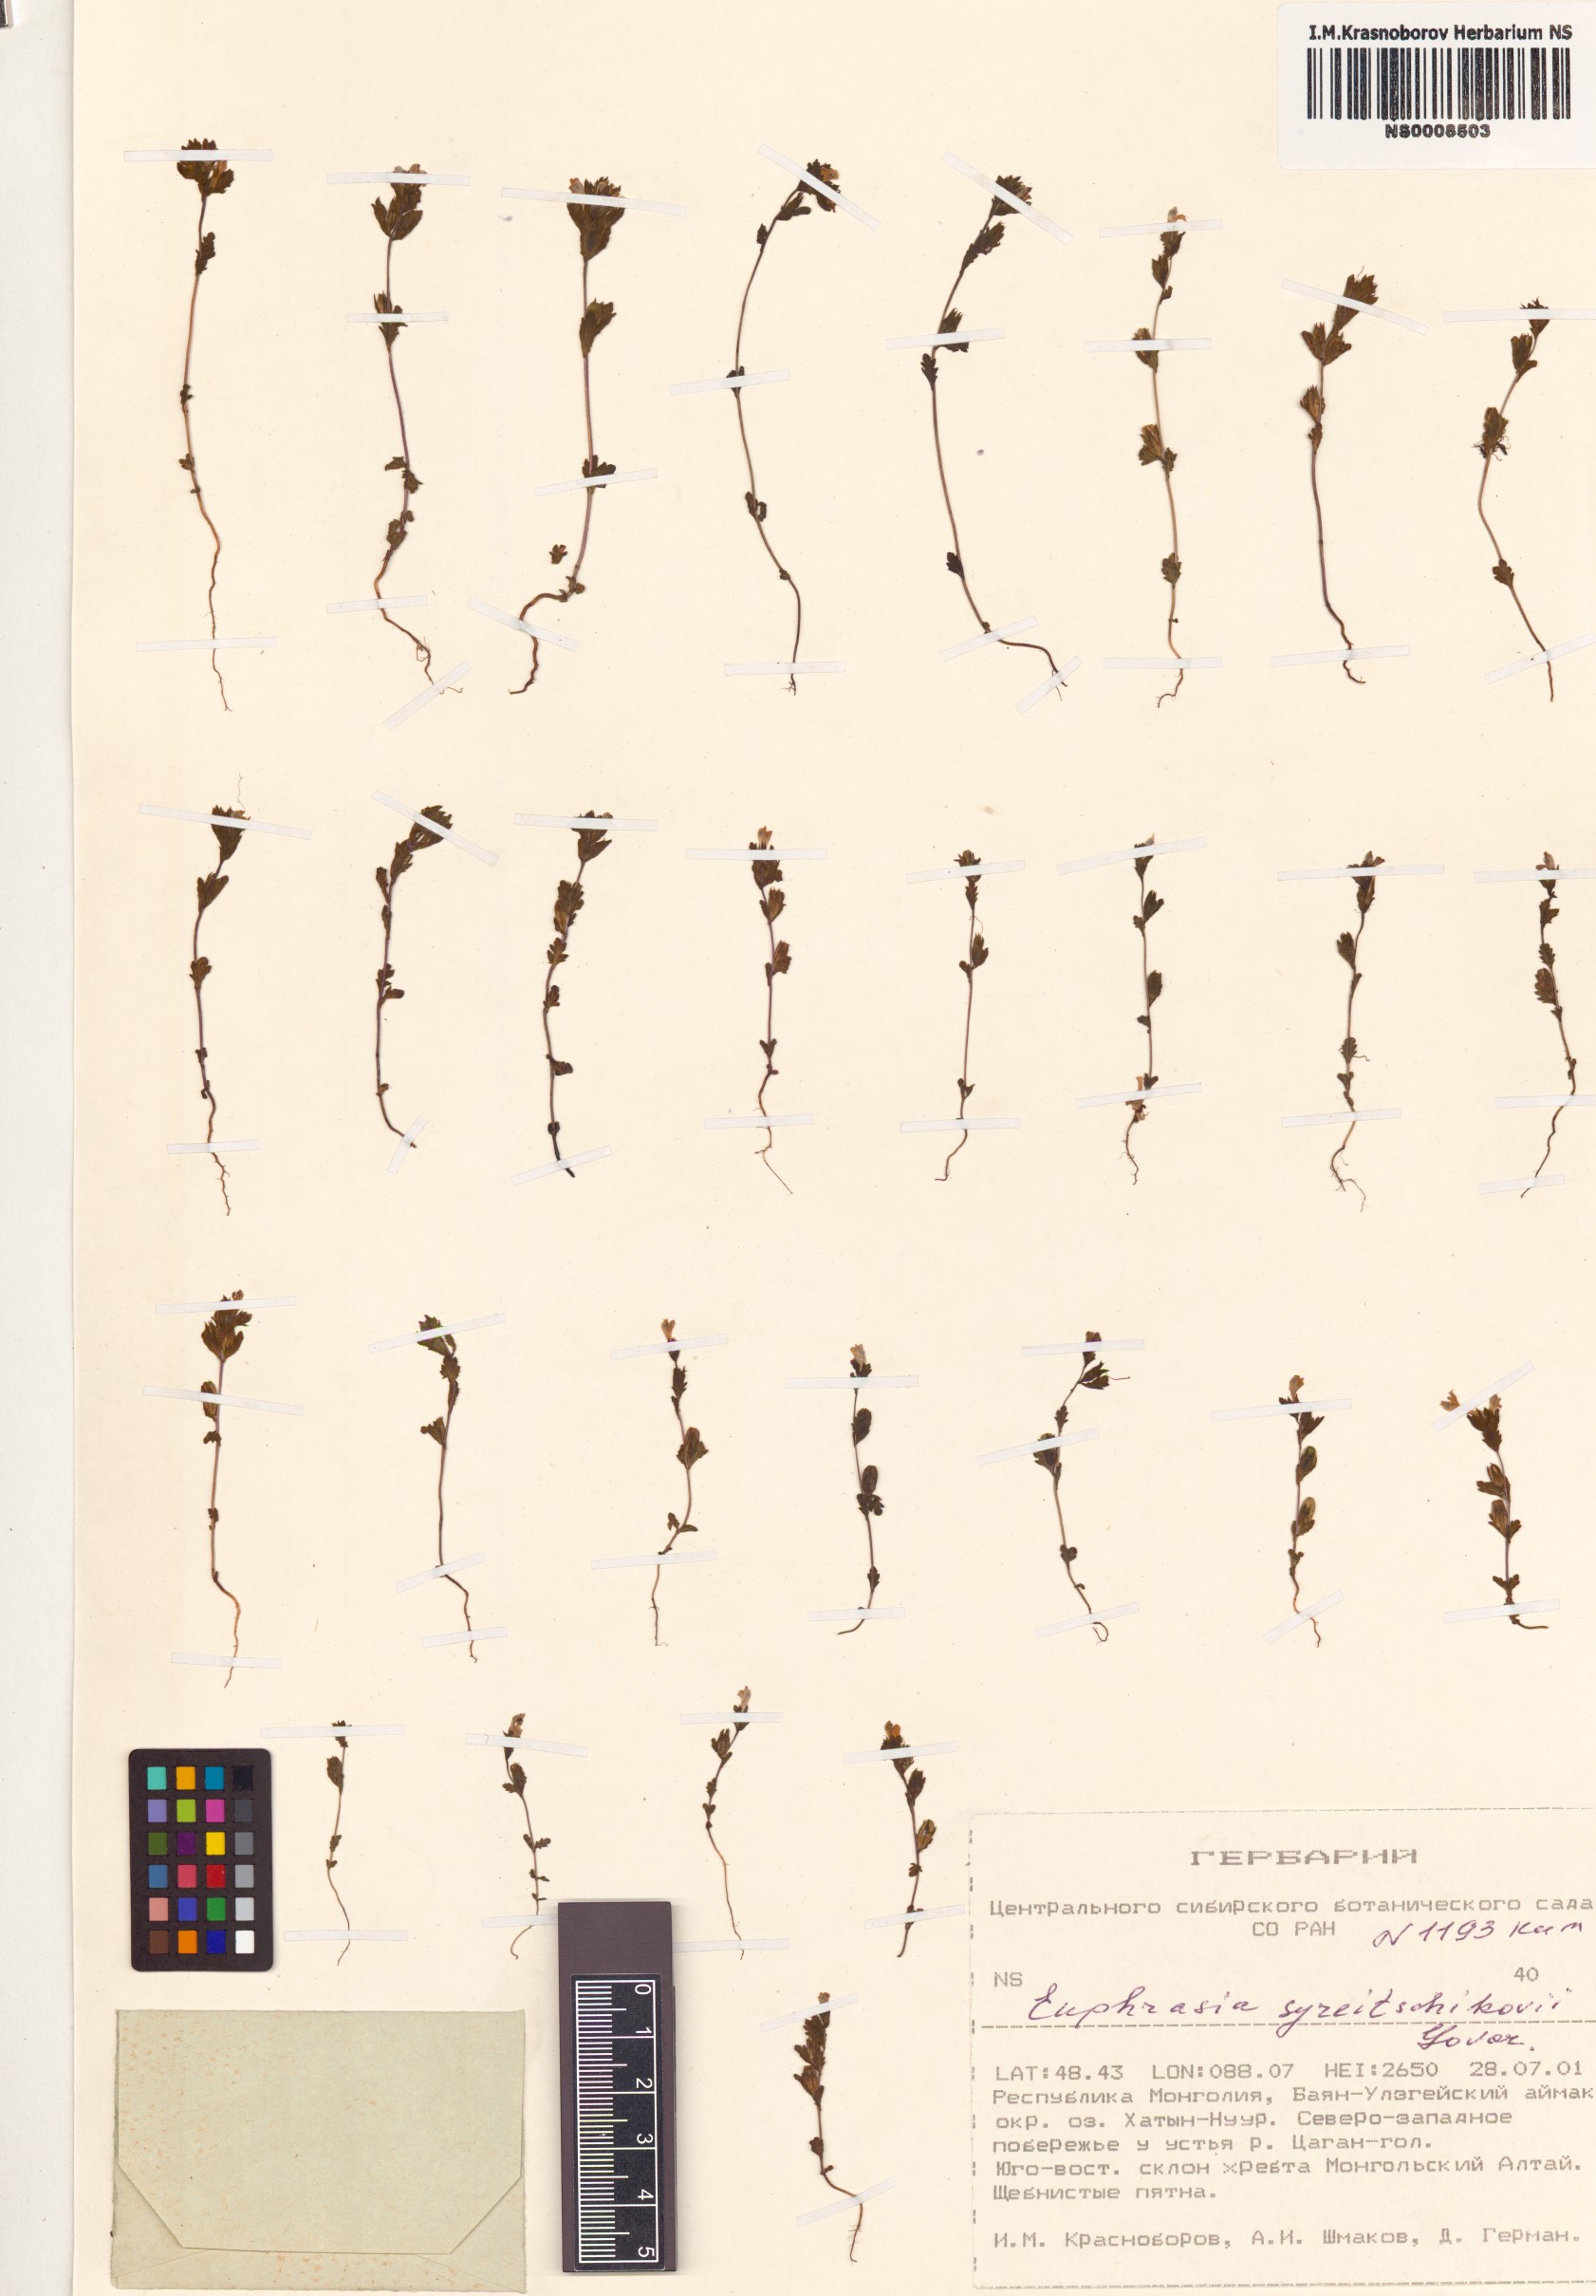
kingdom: Plantae
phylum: Tracheophyta
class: Magnoliopsida
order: Lamiales
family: Orobanchaceae
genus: Euphrasia
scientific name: Euphrasia syreitschikovii
